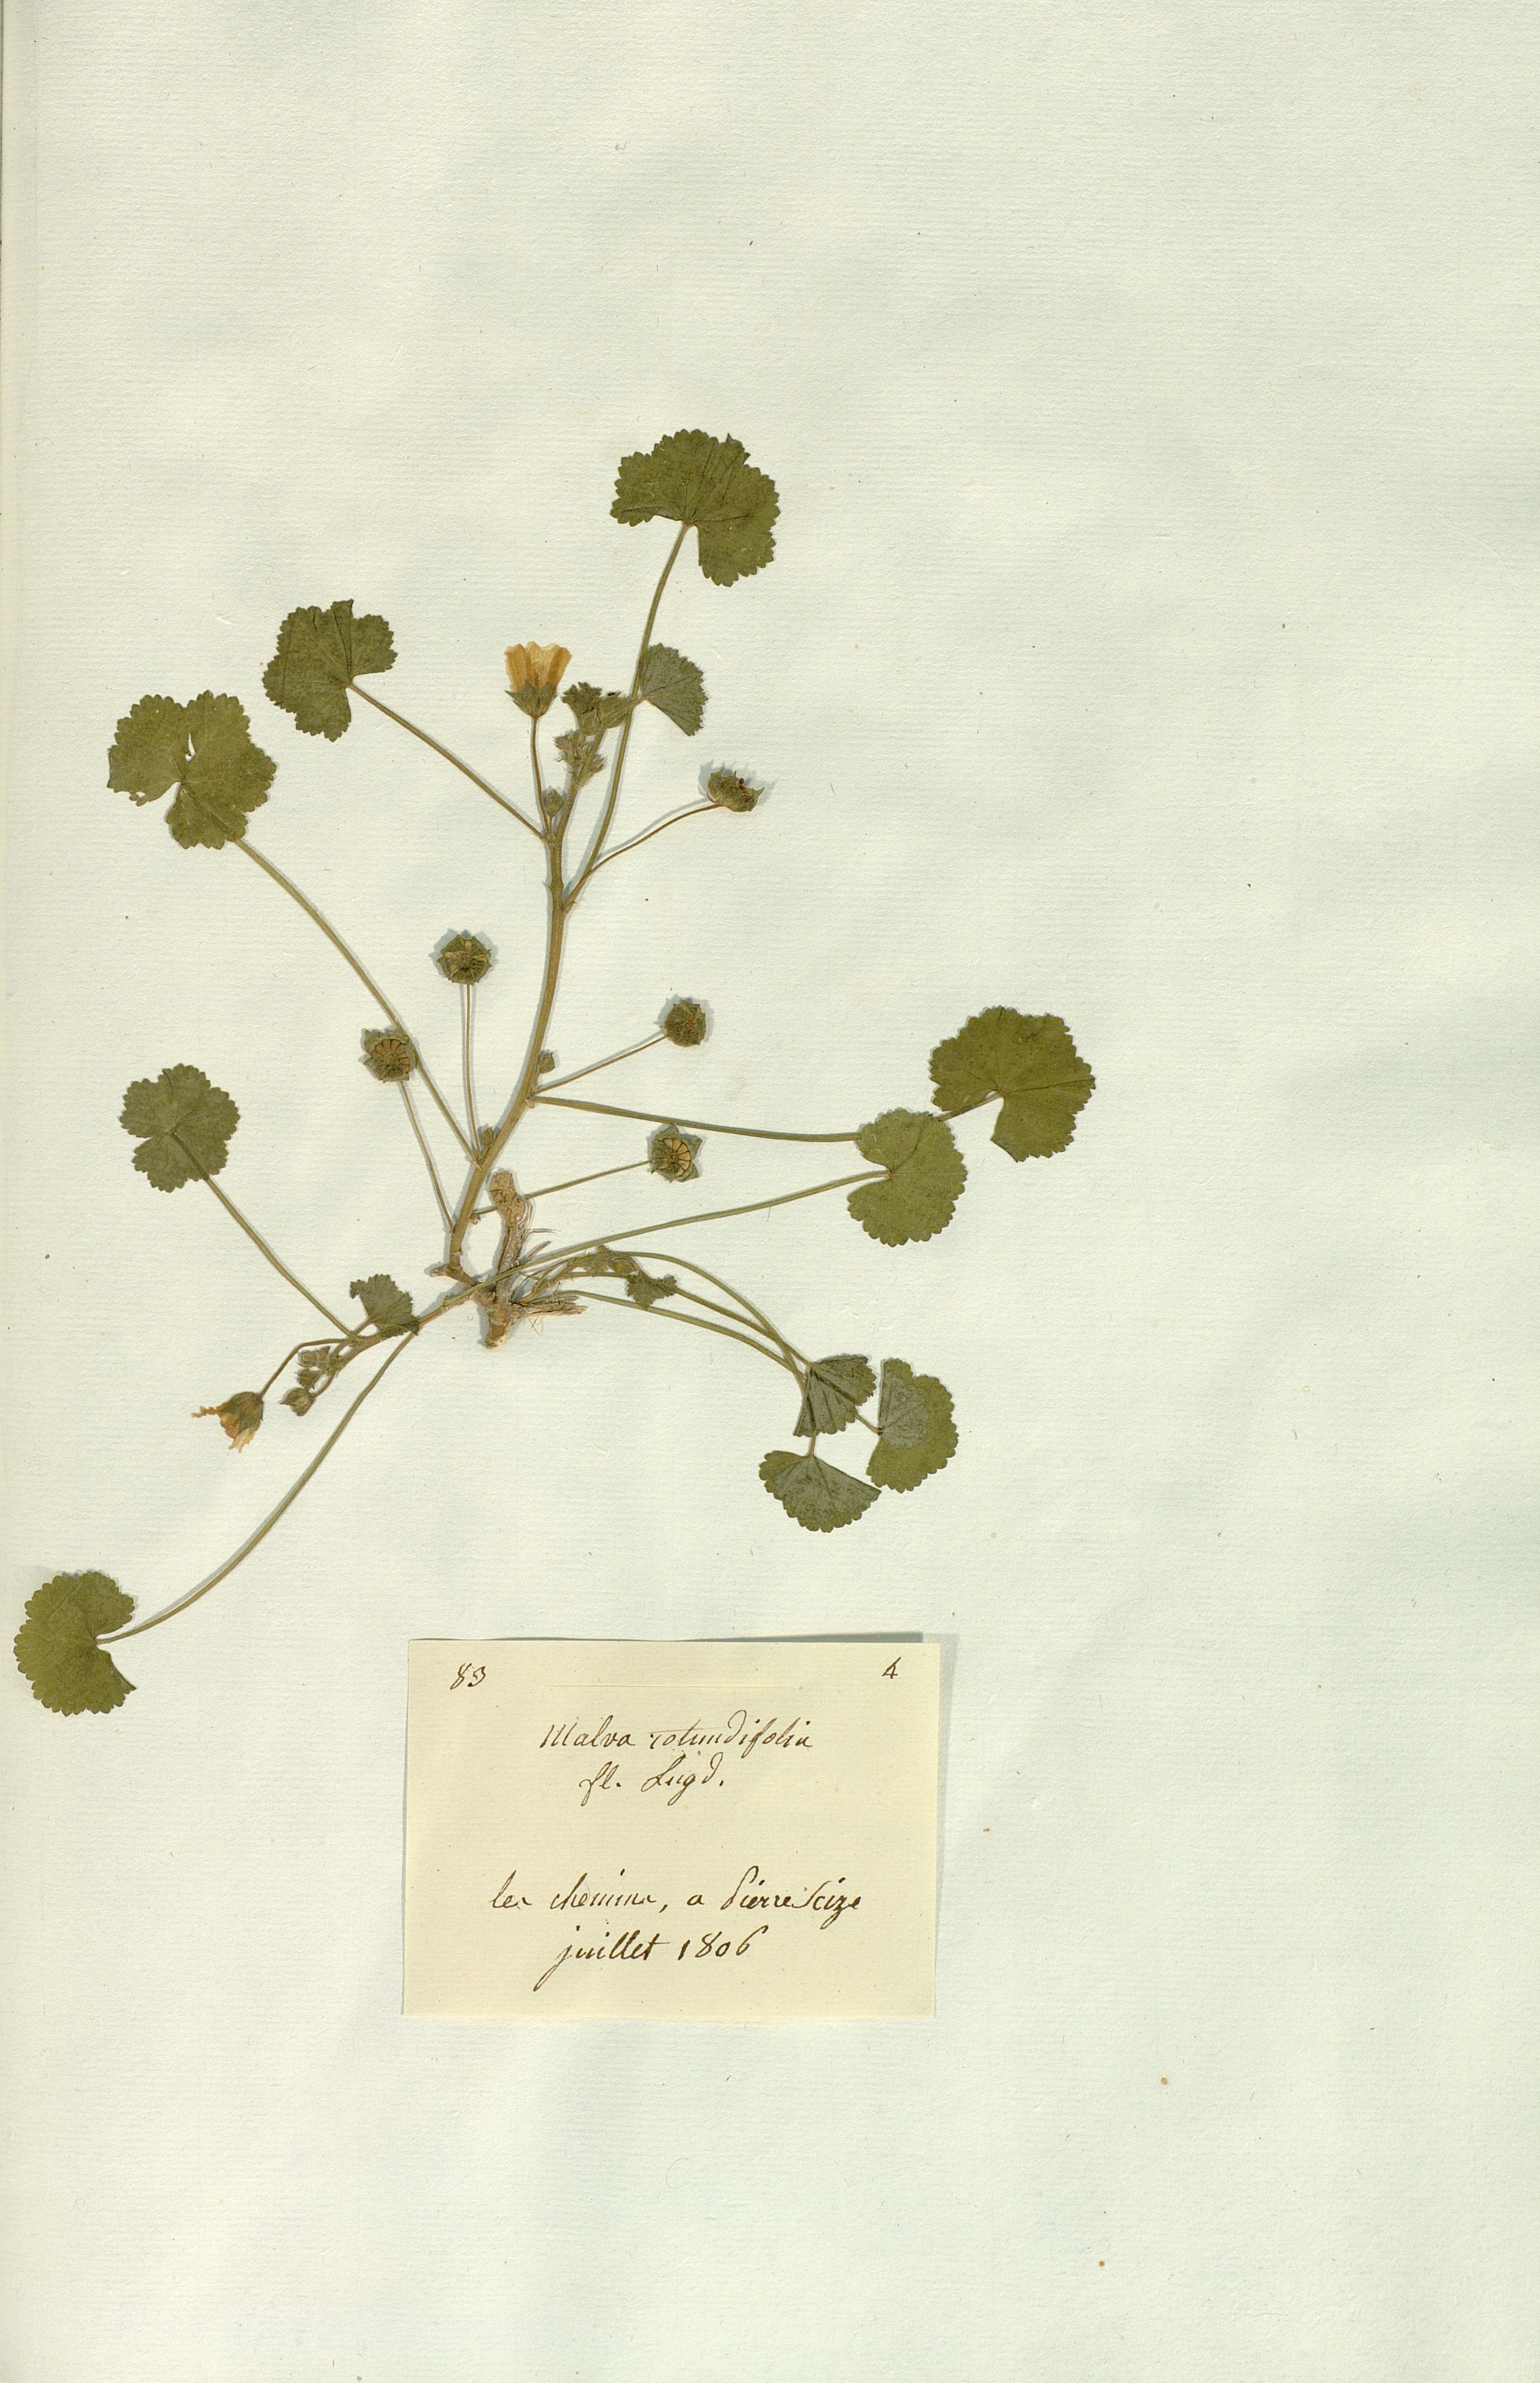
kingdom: Plantae
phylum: Tracheophyta
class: Magnoliopsida
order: Malvales
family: Malvaceae
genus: Malva
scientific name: Malva
